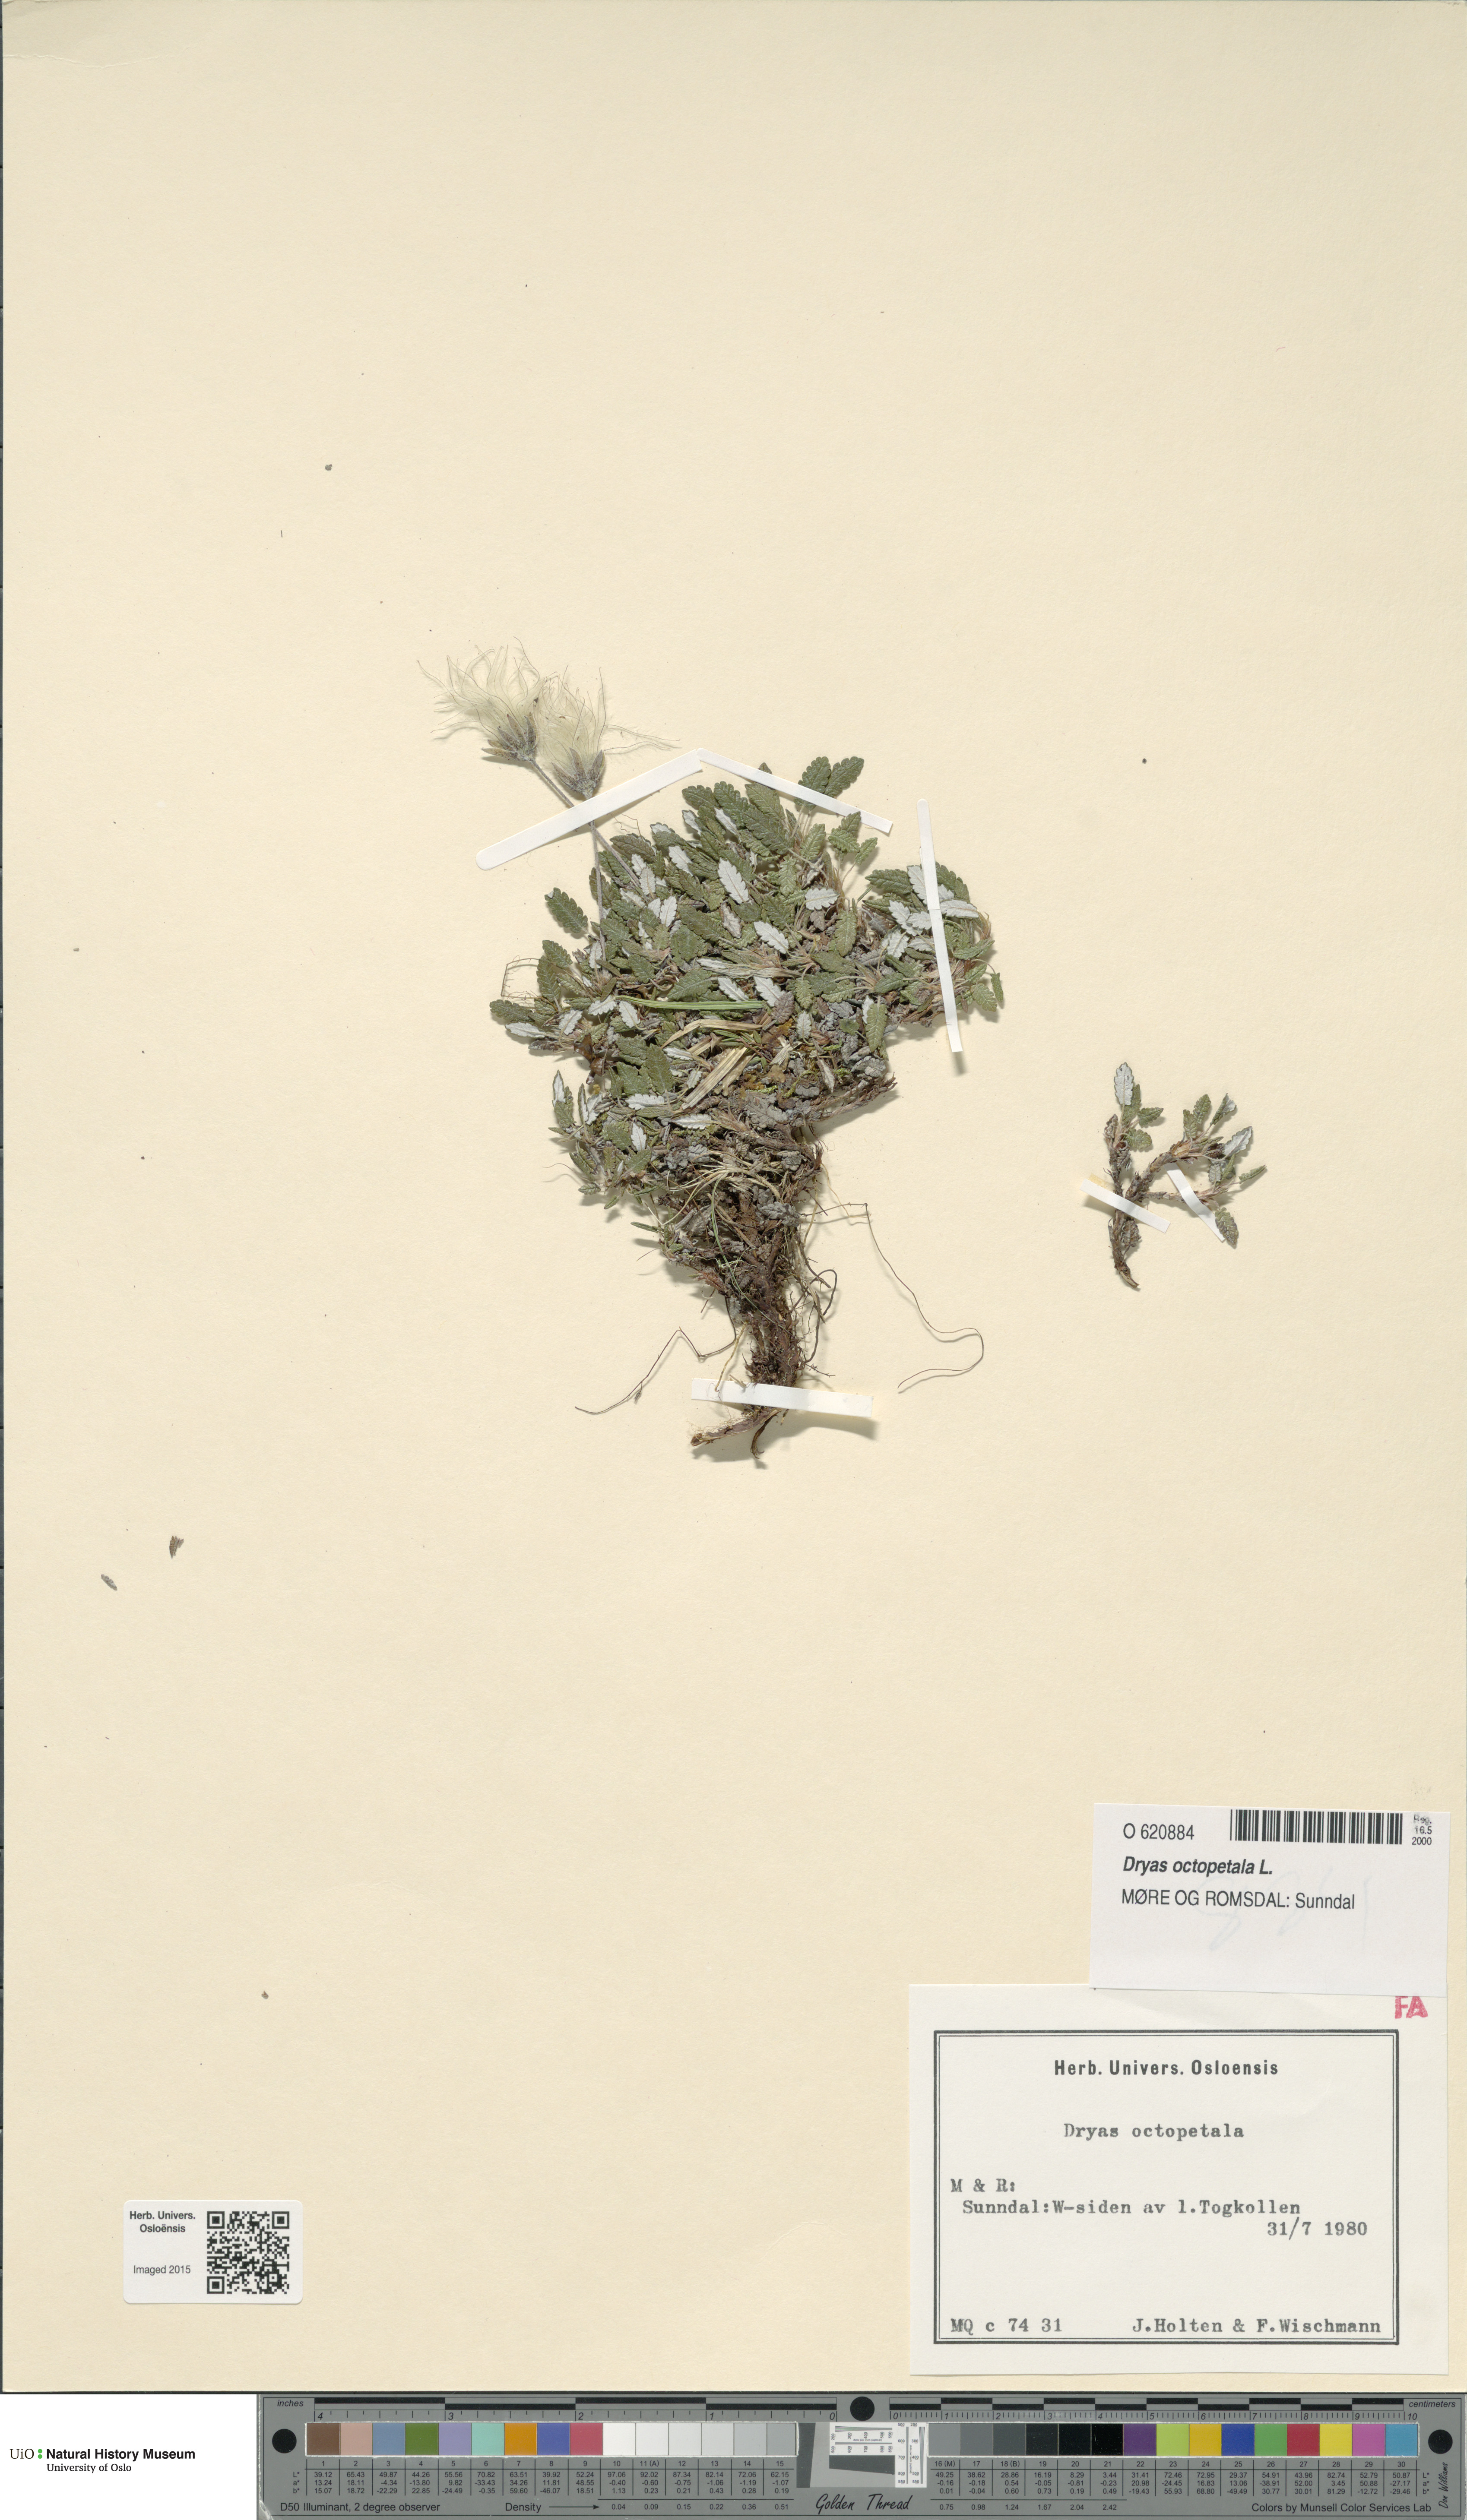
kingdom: Plantae
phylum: Tracheophyta
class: Magnoliopsida
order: Rosales
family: Rosaceae
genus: Dryas
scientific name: Dryas octopetala
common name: Eight-petal mountain-avens
